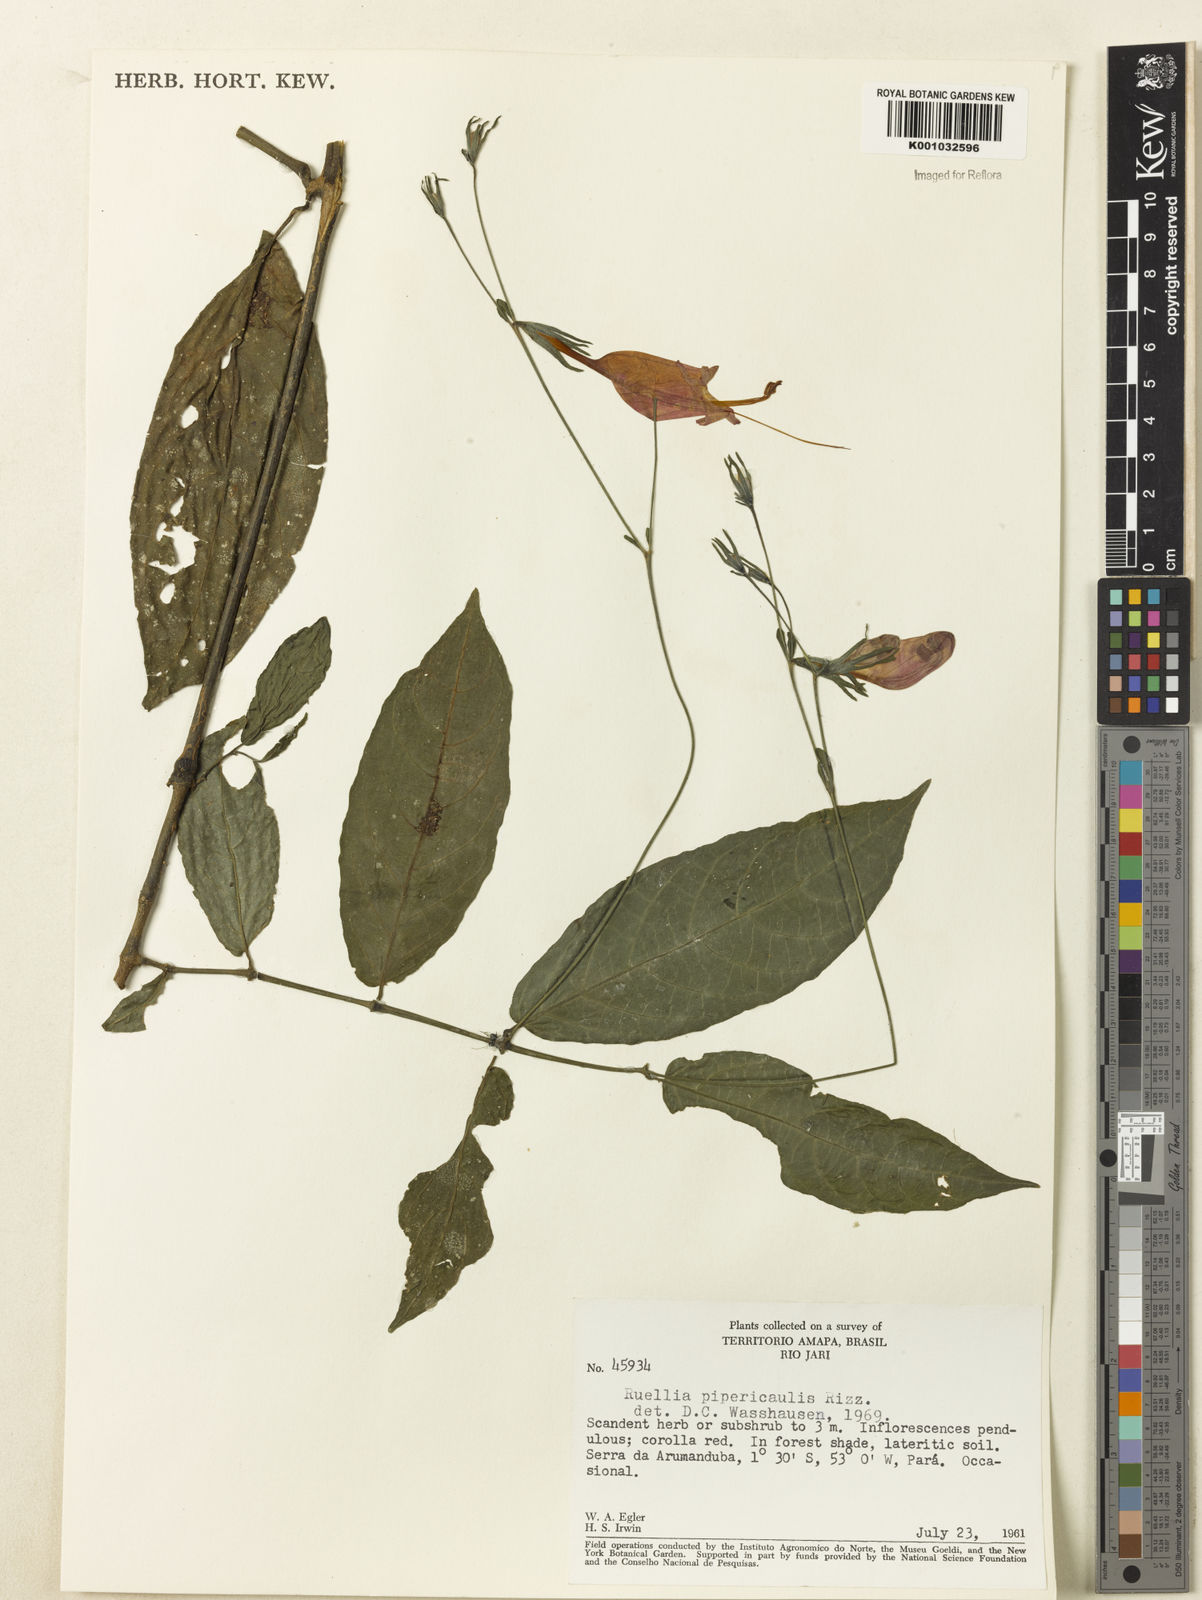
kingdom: Plantae
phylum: Tracheophyta
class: Magnoliopsida
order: Lamiales
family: Acanthaceae
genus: Ruellia
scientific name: Ruellia inflata
